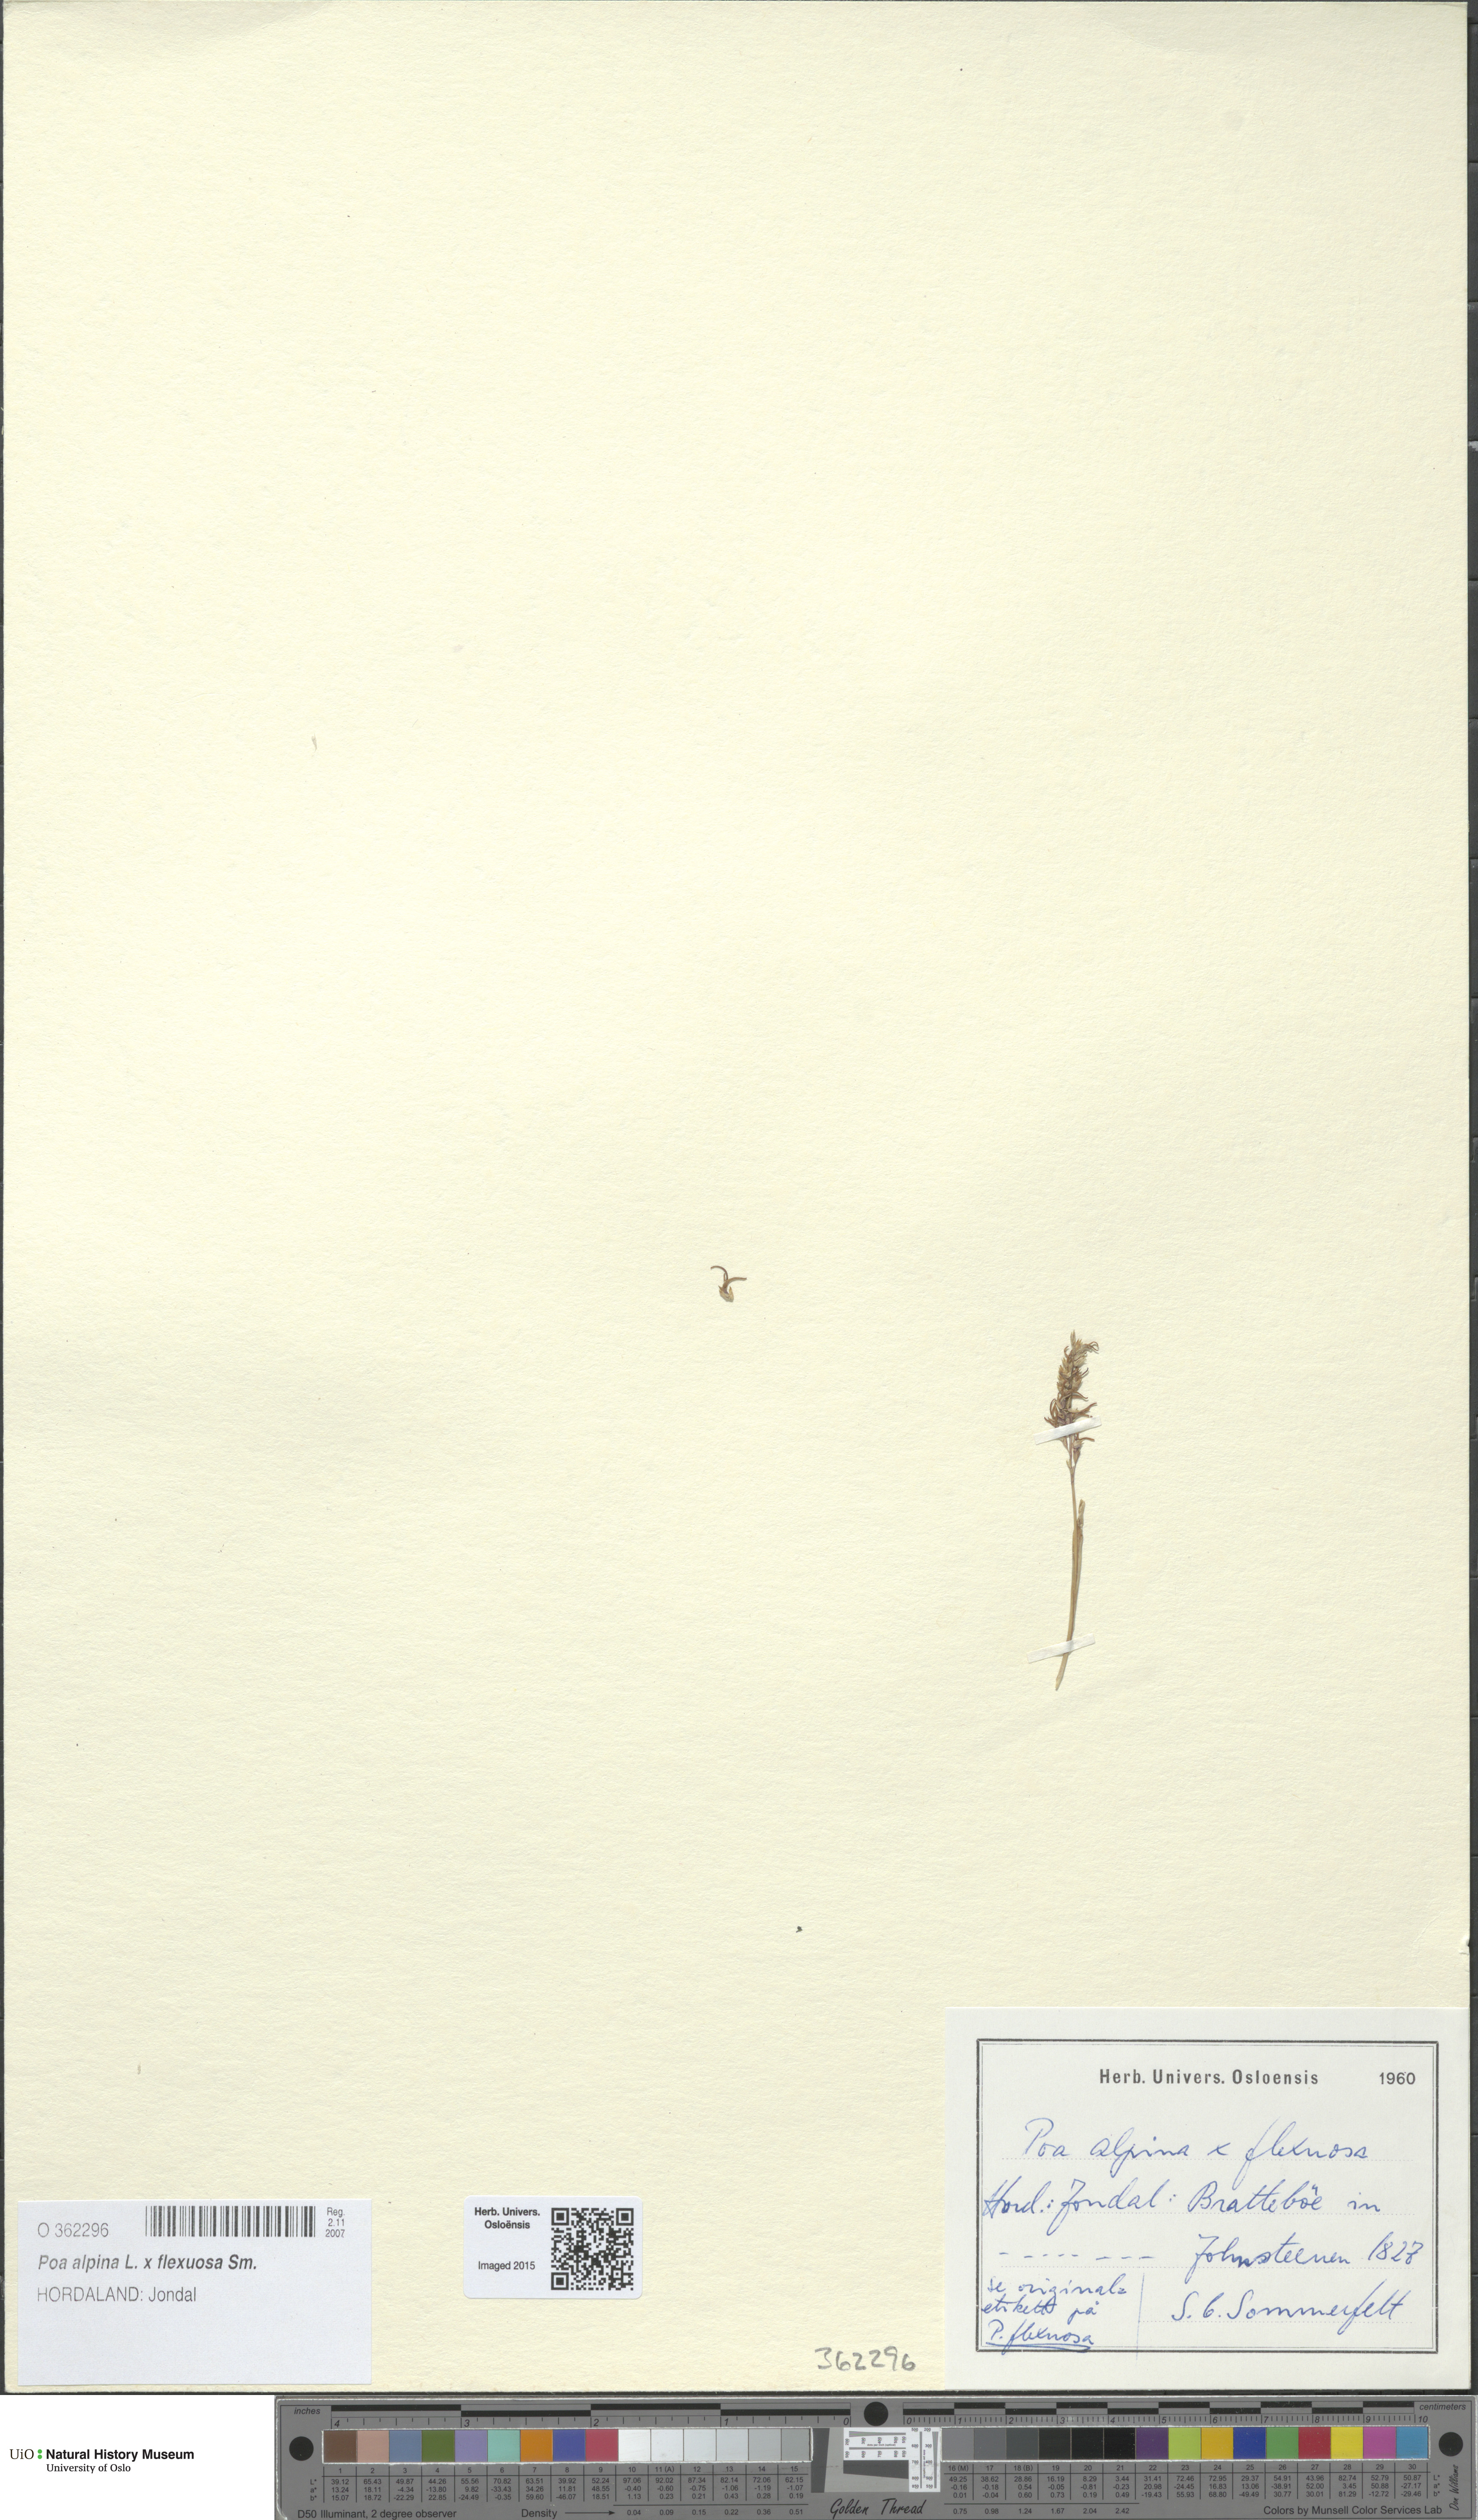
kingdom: Plantae
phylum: Tracheophyta
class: Liliopsida
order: Poales
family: Poaceae
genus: Poa
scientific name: Poa
